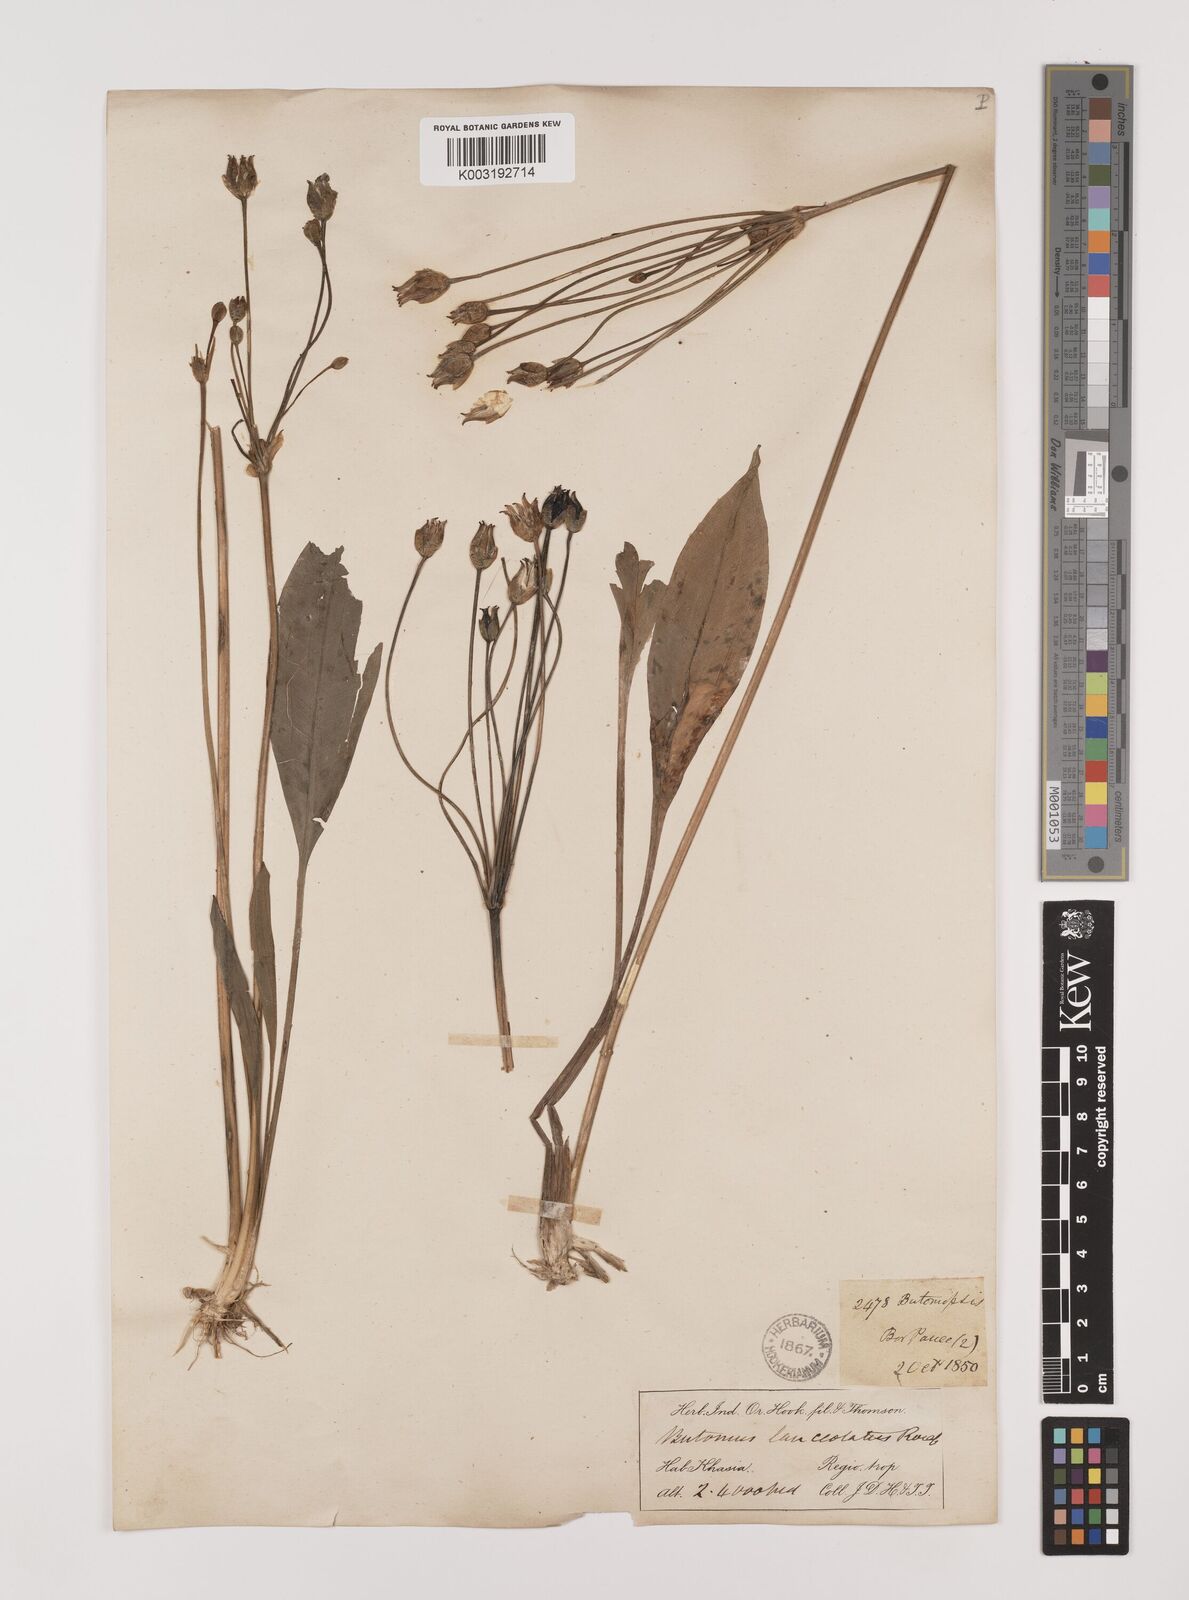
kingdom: Plantae
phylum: Tracheophyta
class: Liliopsida
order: Alismatales
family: Alismataceae
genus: Butomopsis
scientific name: Butomopsis latifolia
